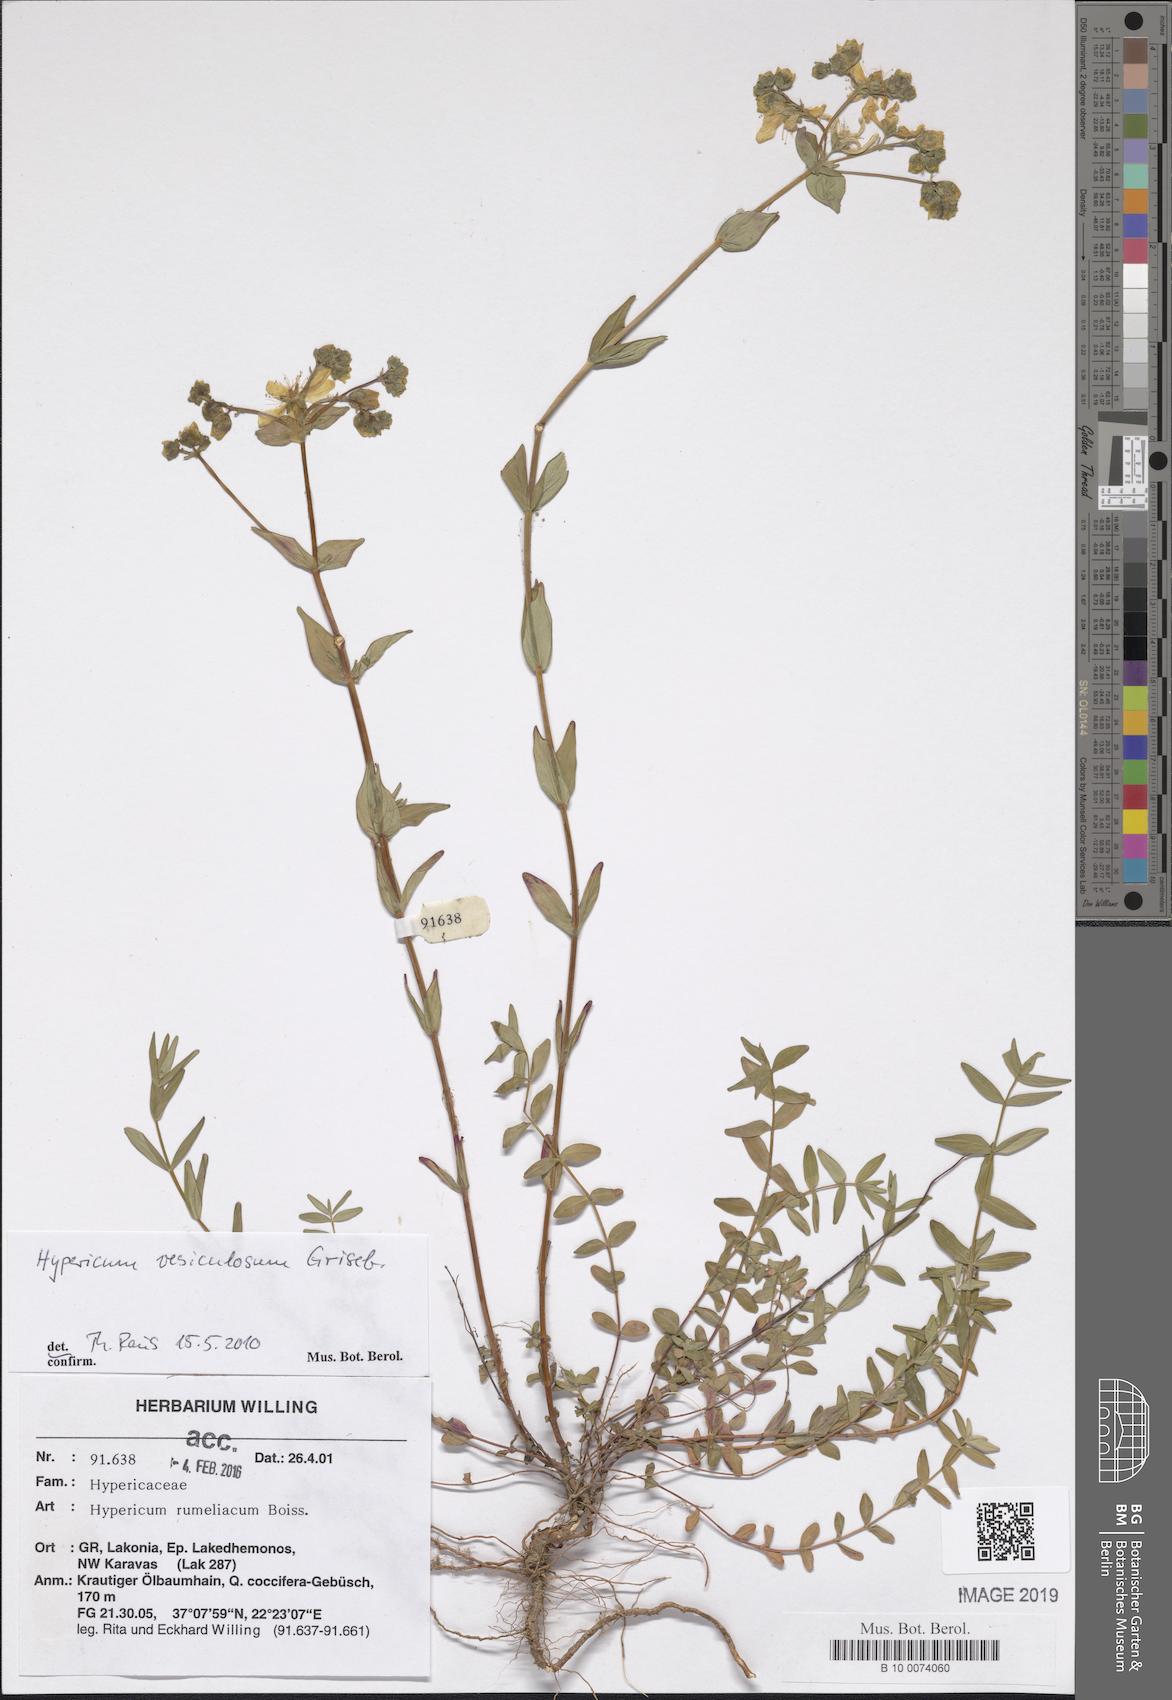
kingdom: Plantae
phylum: Tracheophyta
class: Magnoliopsida
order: Malpighiales
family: Hypericaceae
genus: Hypericum
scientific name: Hypericum perfoliatum
